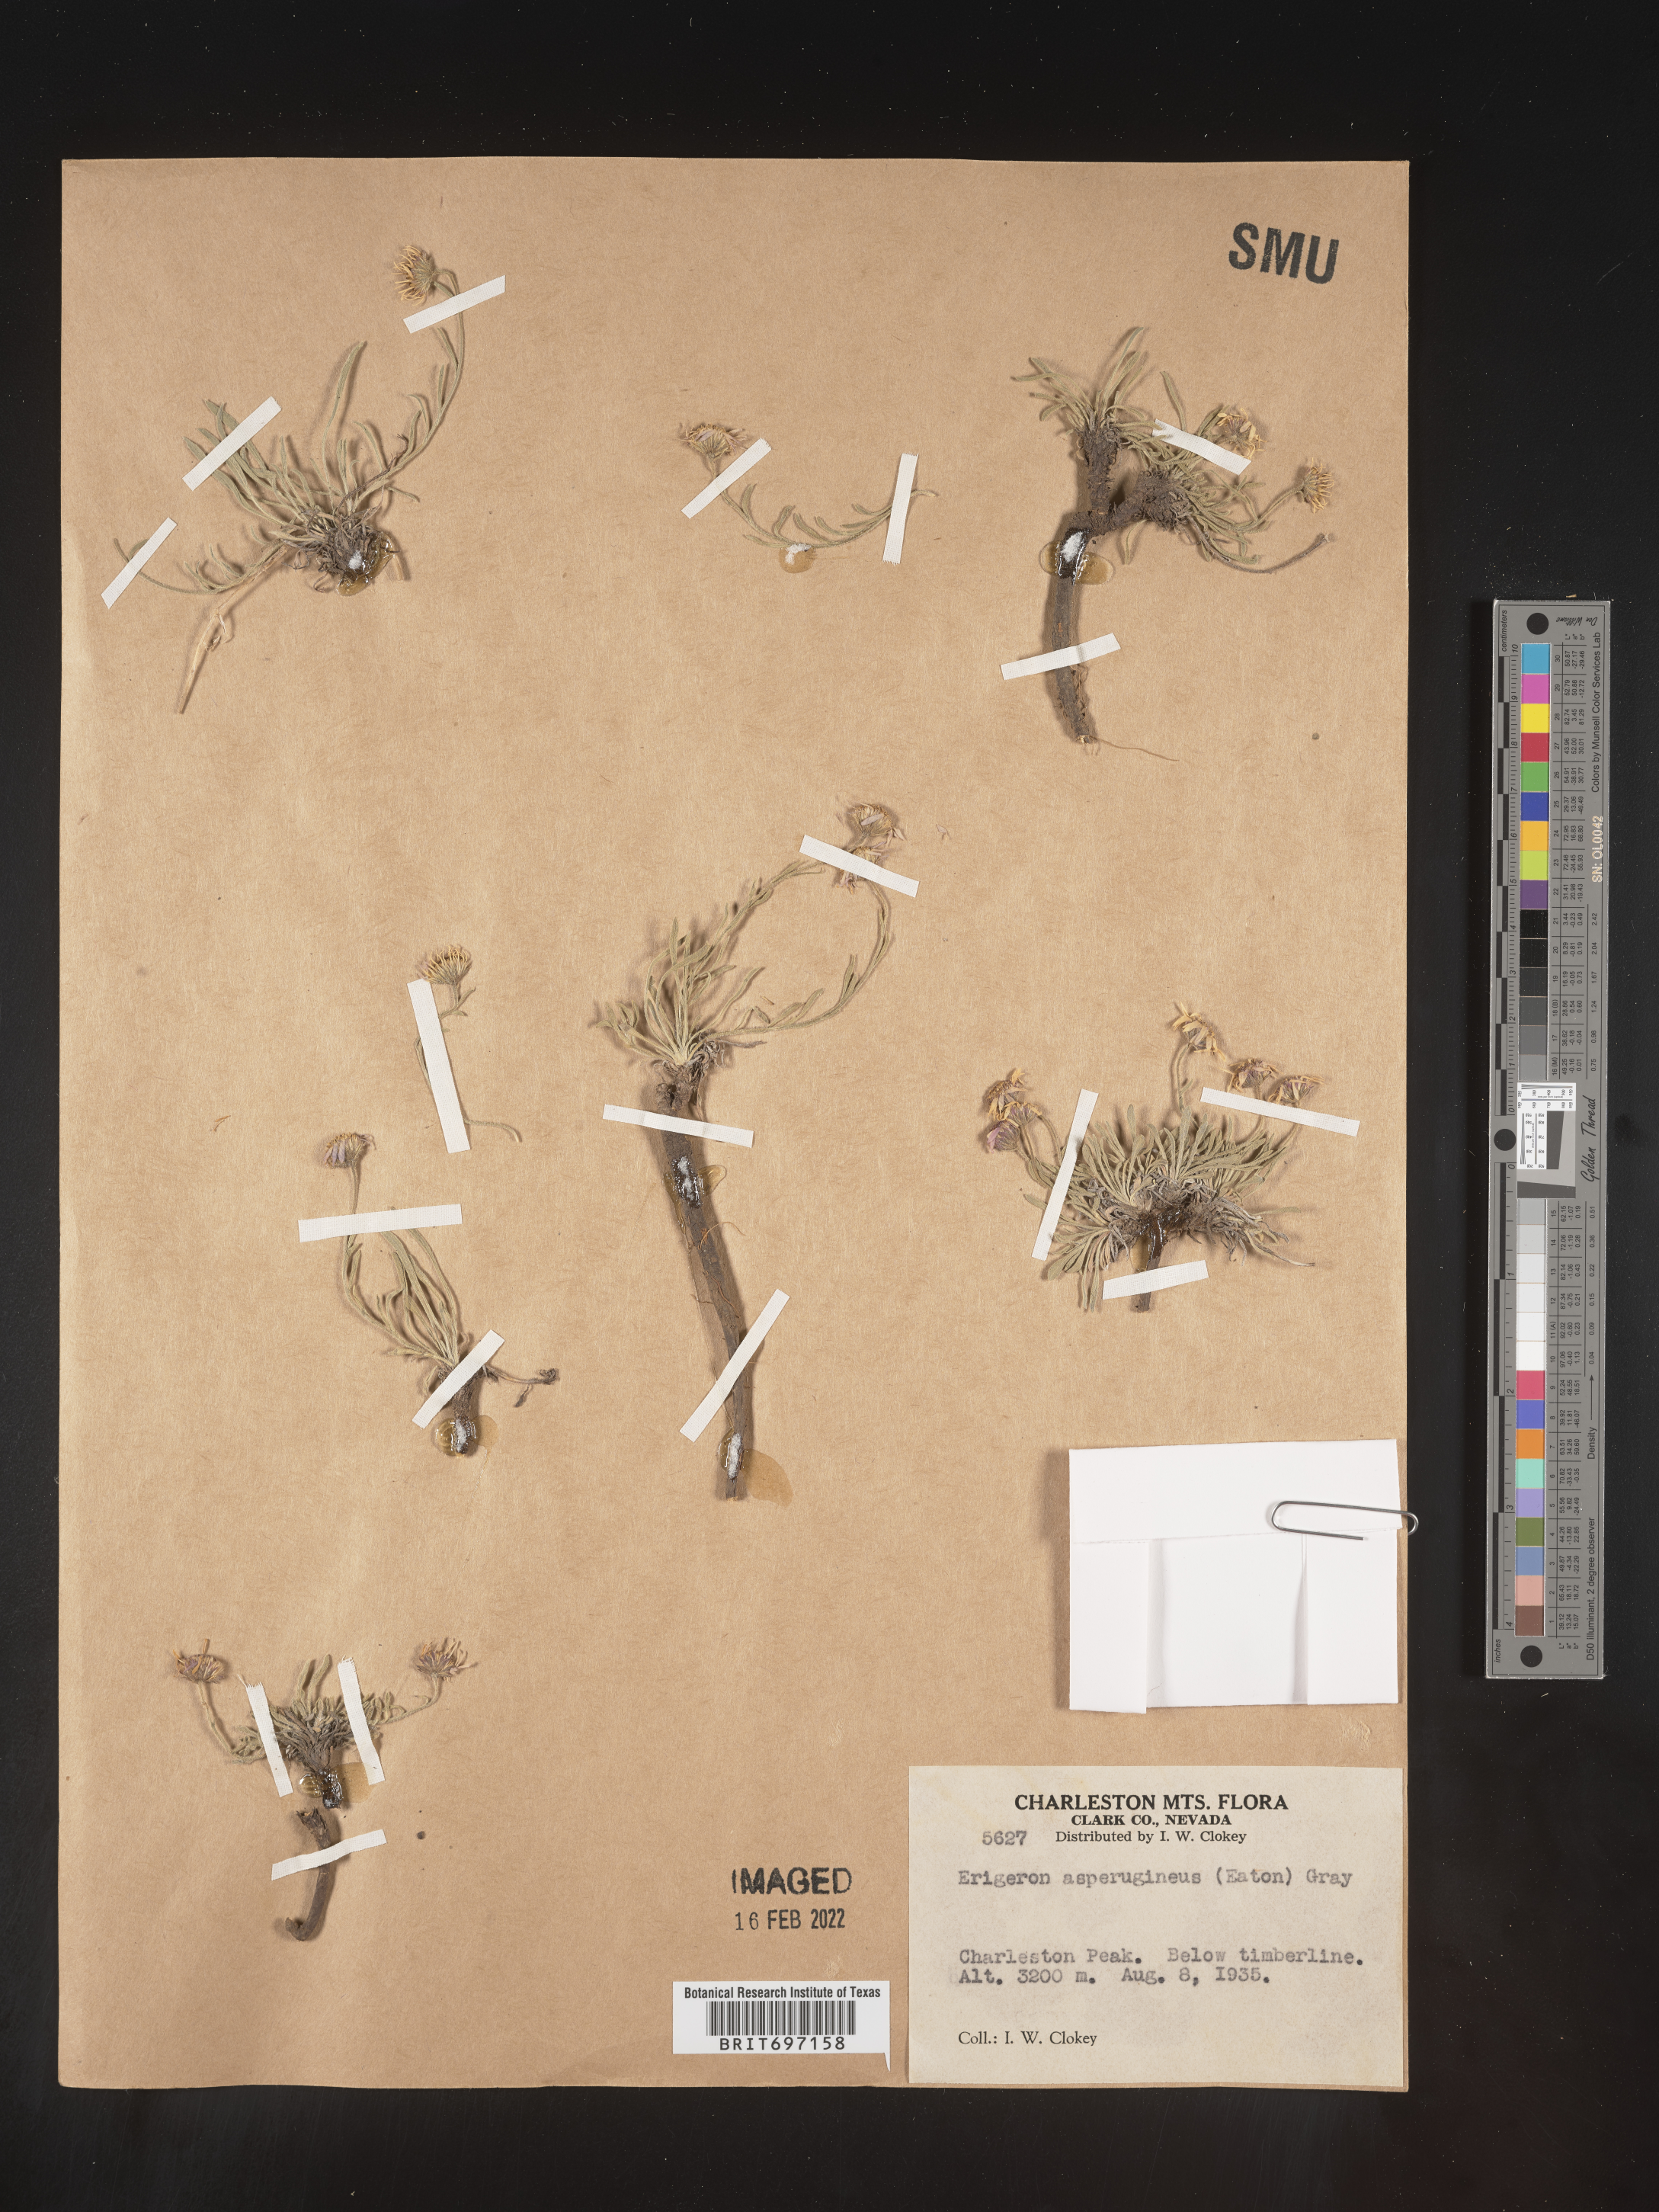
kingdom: Plantae
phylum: Tracheophyta
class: Magnoliopsida
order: Asterales
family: Asteraceae
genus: Erigeron
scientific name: Erigeron clokeyi
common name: Clokey's fleabane
